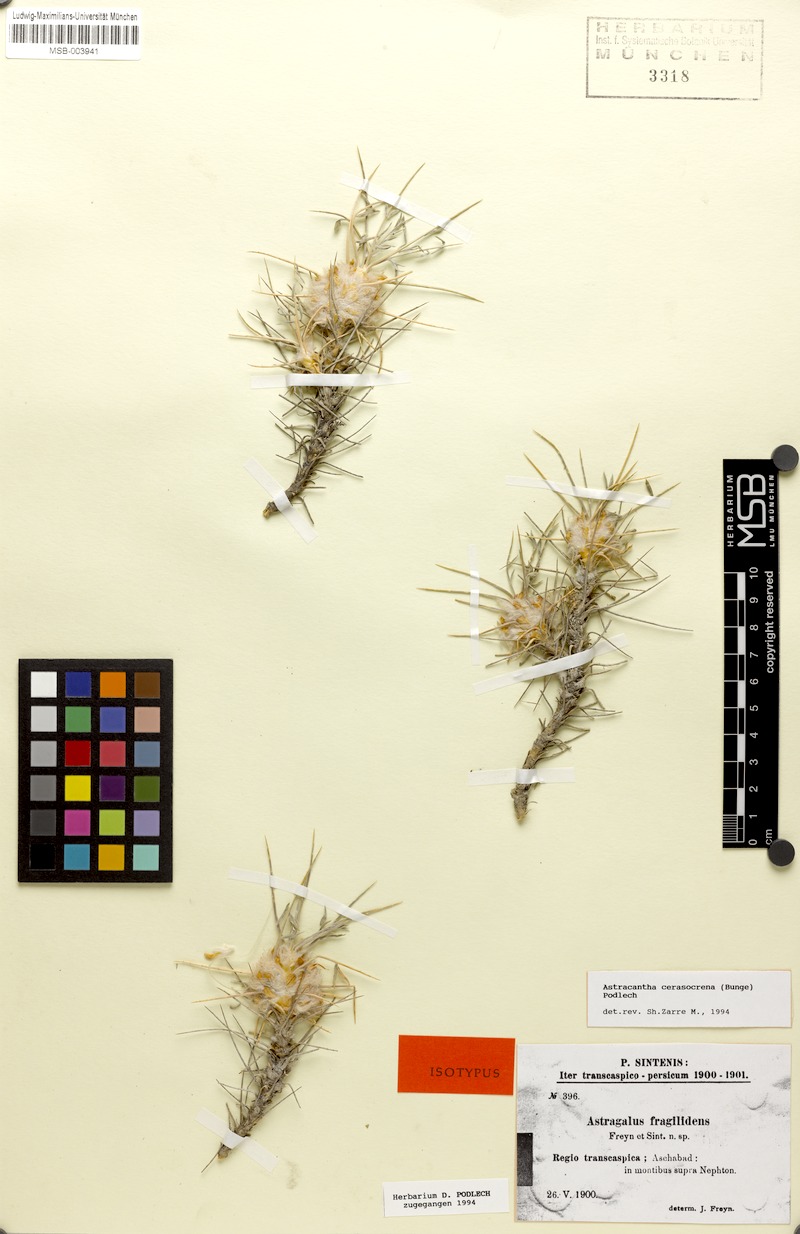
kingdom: Plantae
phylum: Tracheophyta
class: Magnoliopsida
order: Fabales
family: Fabaceae
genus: Astragalus
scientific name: Astragalus cerasocrenus
